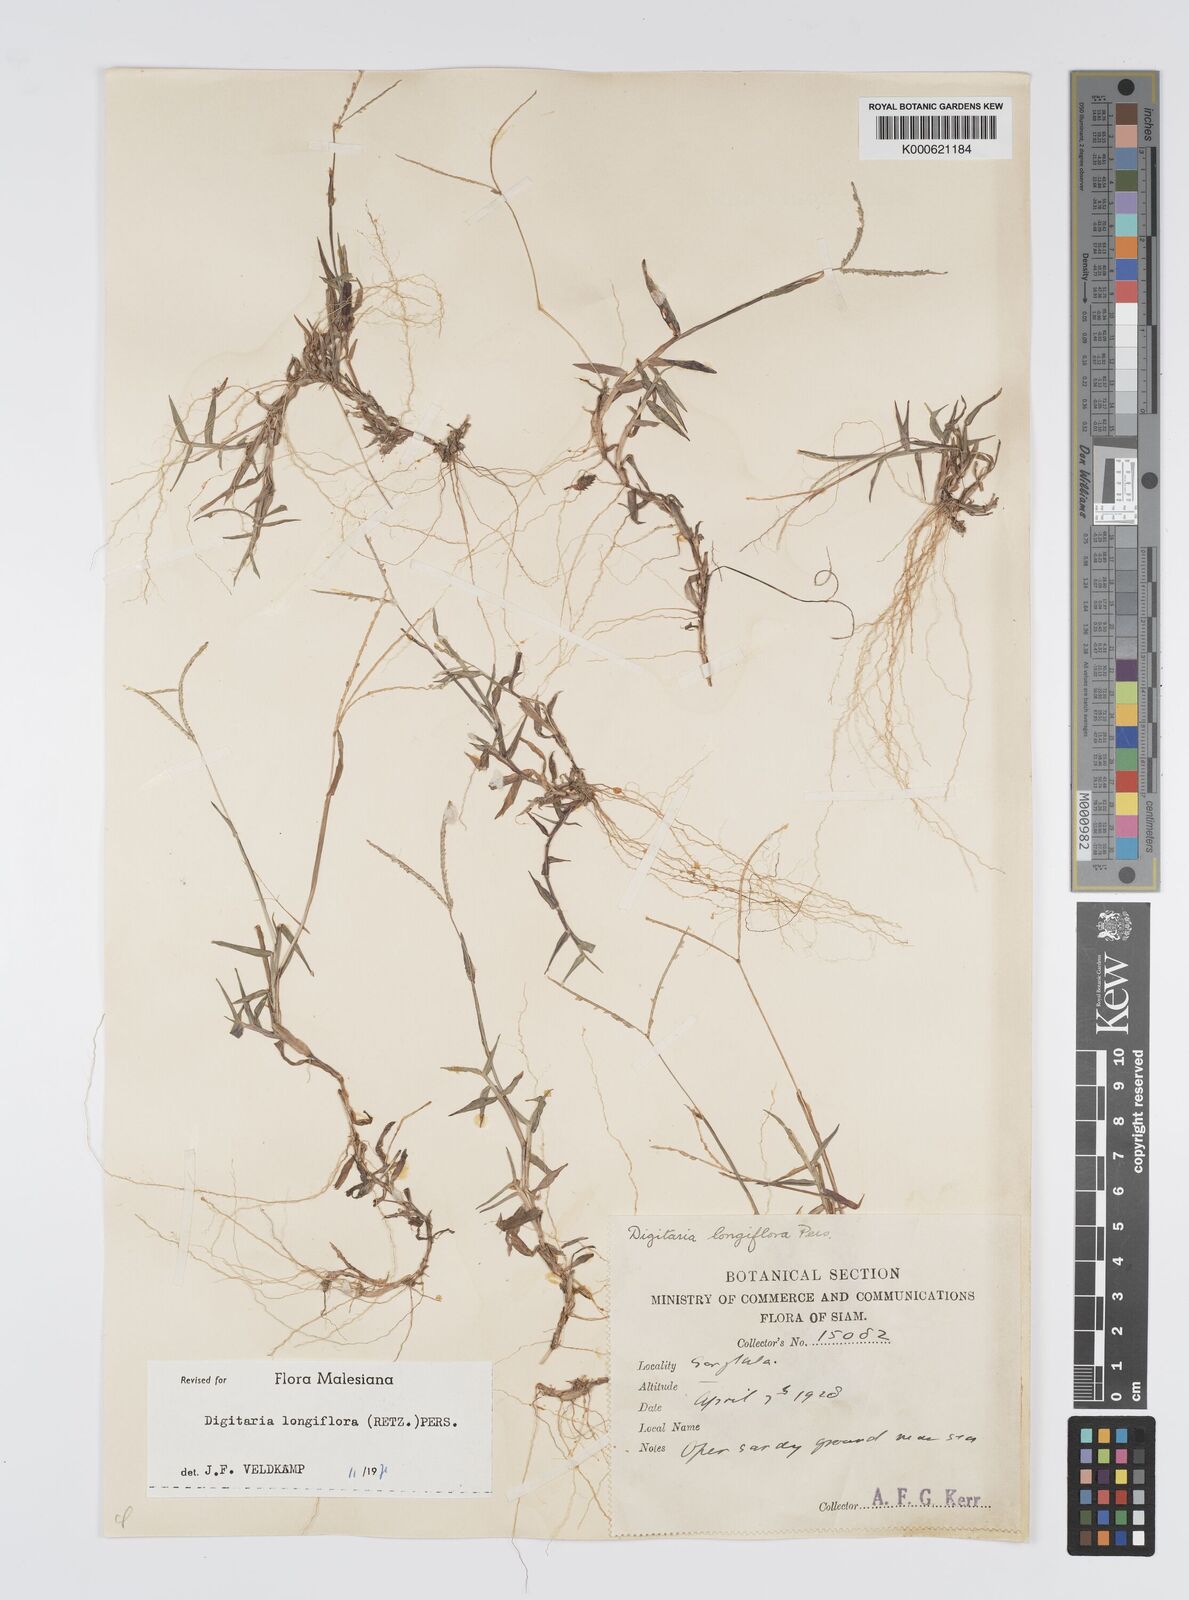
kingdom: Plantae
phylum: Tracheophyta
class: Liliopsida
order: Poales
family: Poaceae
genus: Digitaria
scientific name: Digitaria longiflora
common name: Wire crabgrass
